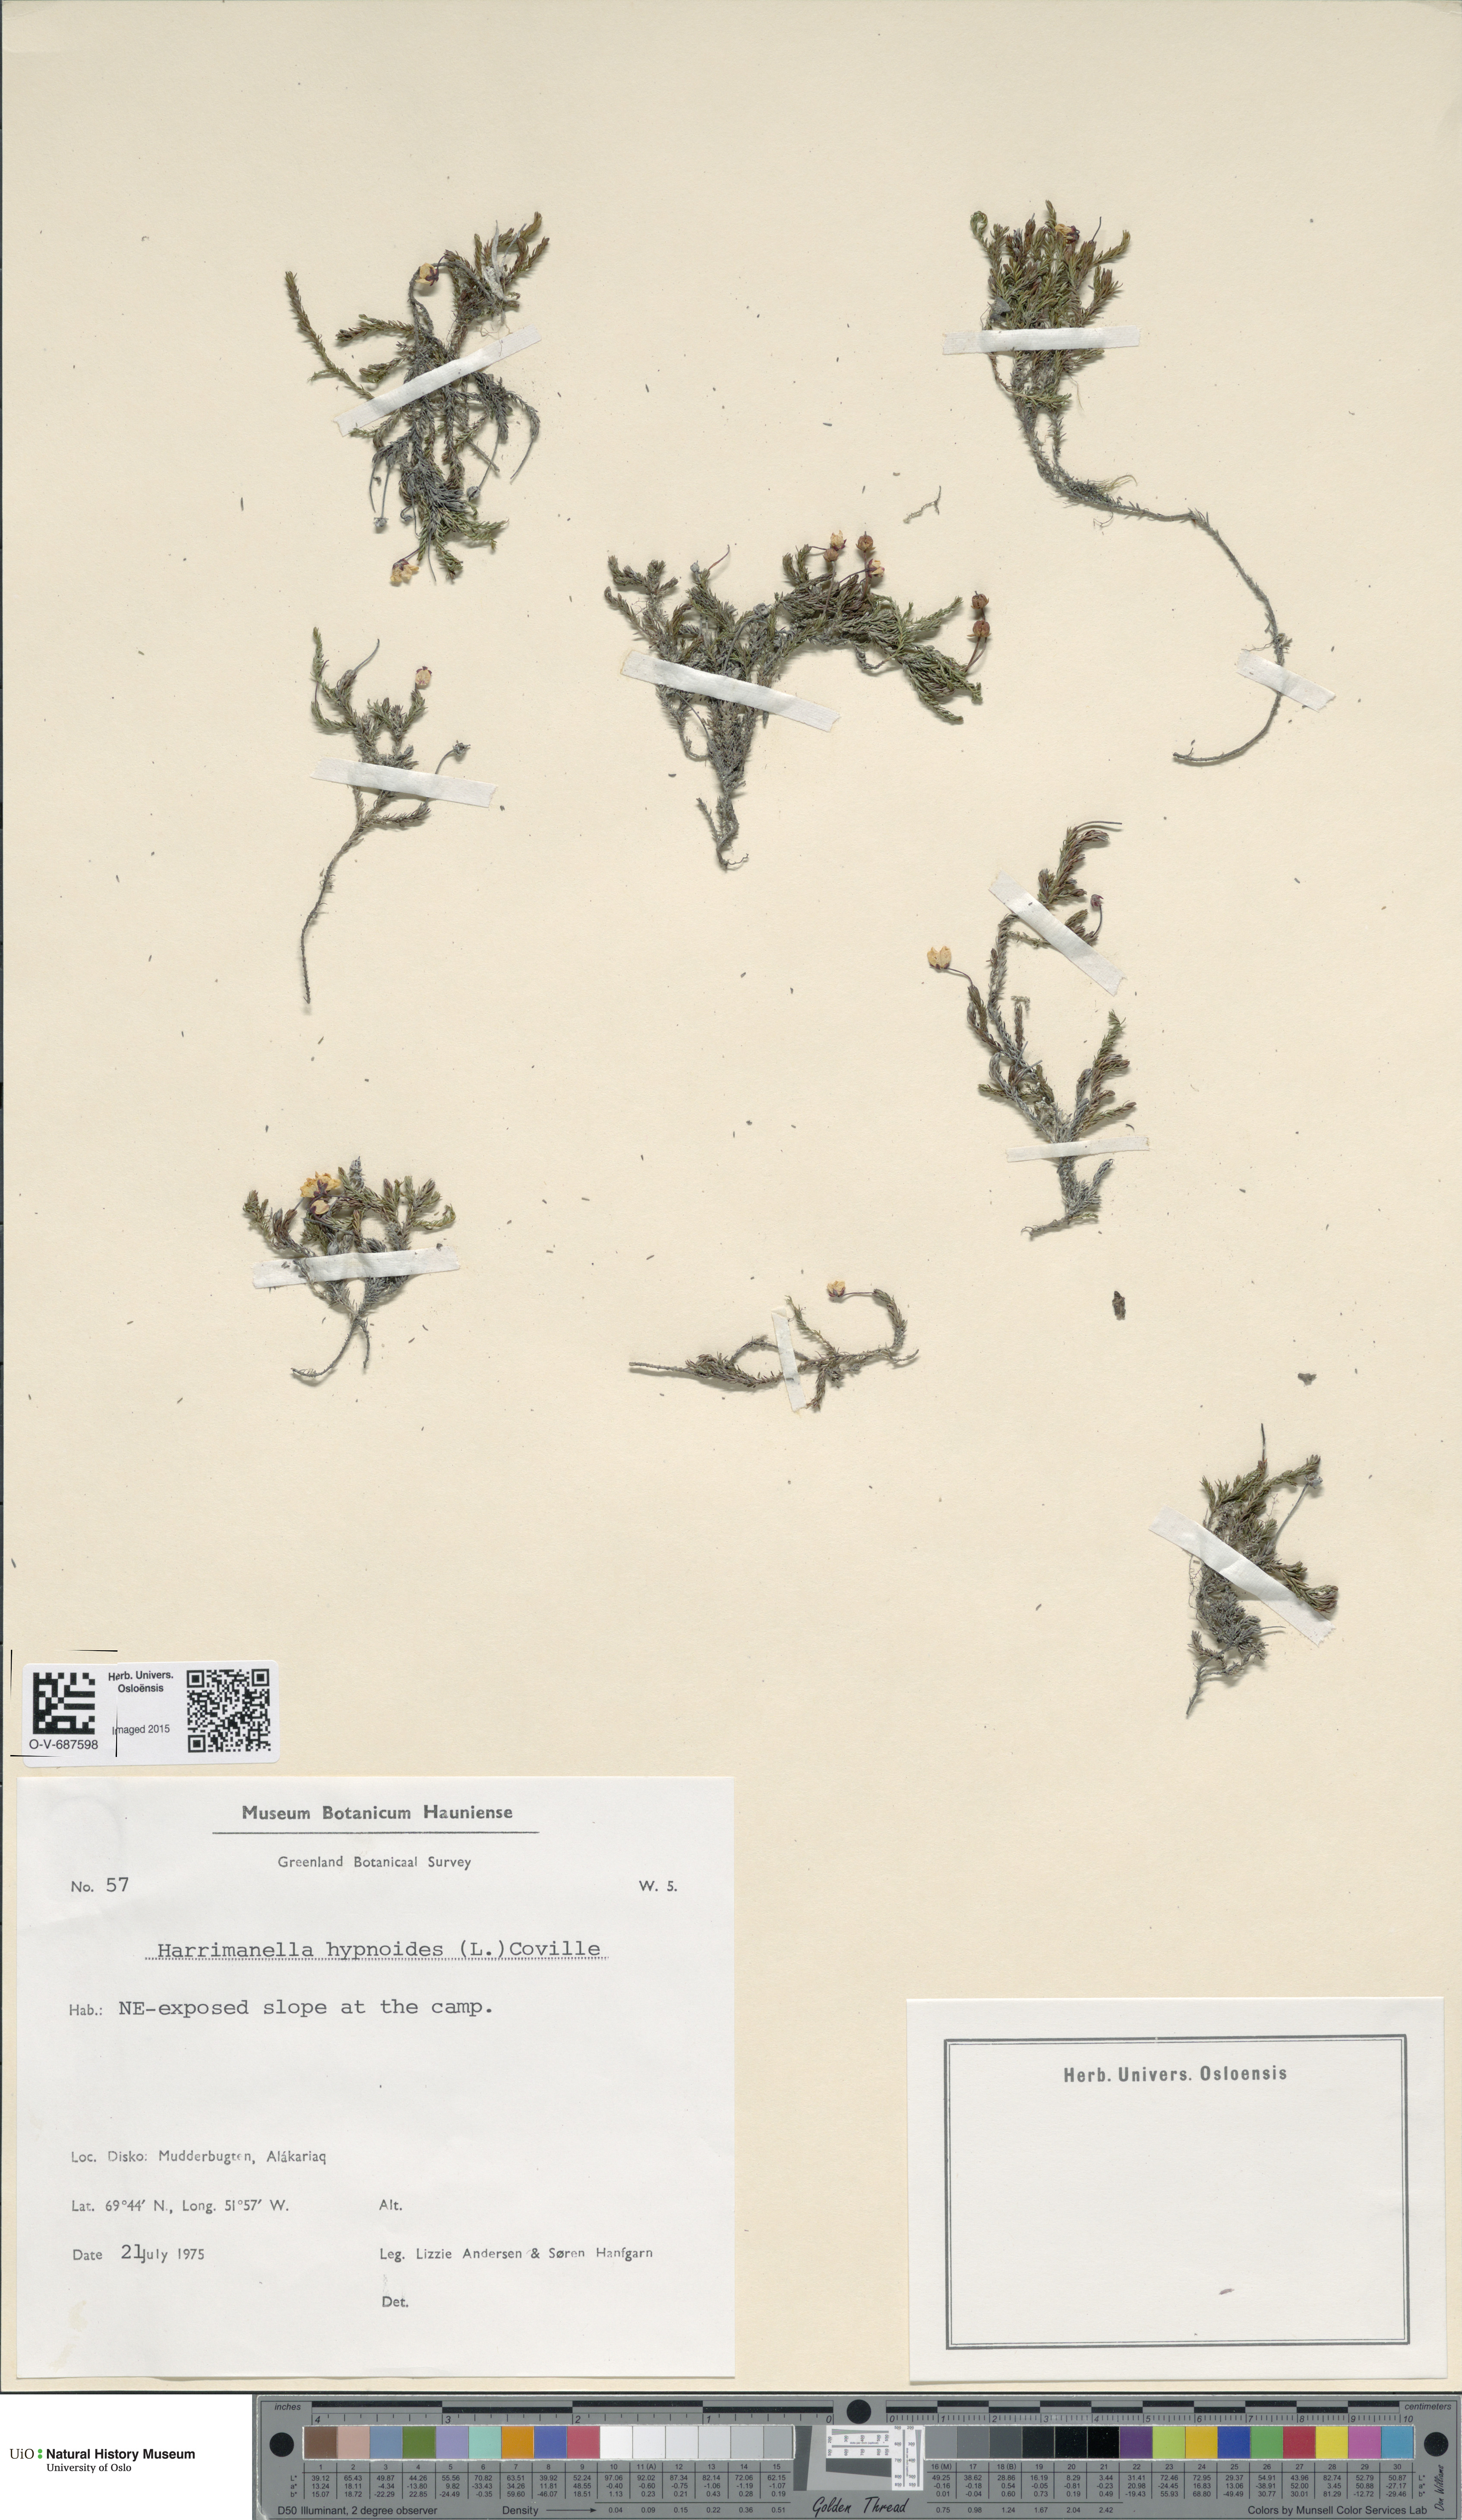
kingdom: Plantae
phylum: Tracheophyta
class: Magnoliopsida
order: Ericales
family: Ericaceae
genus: Harrimanella
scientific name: Harrimanella hypnoides
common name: Moss bell heather
